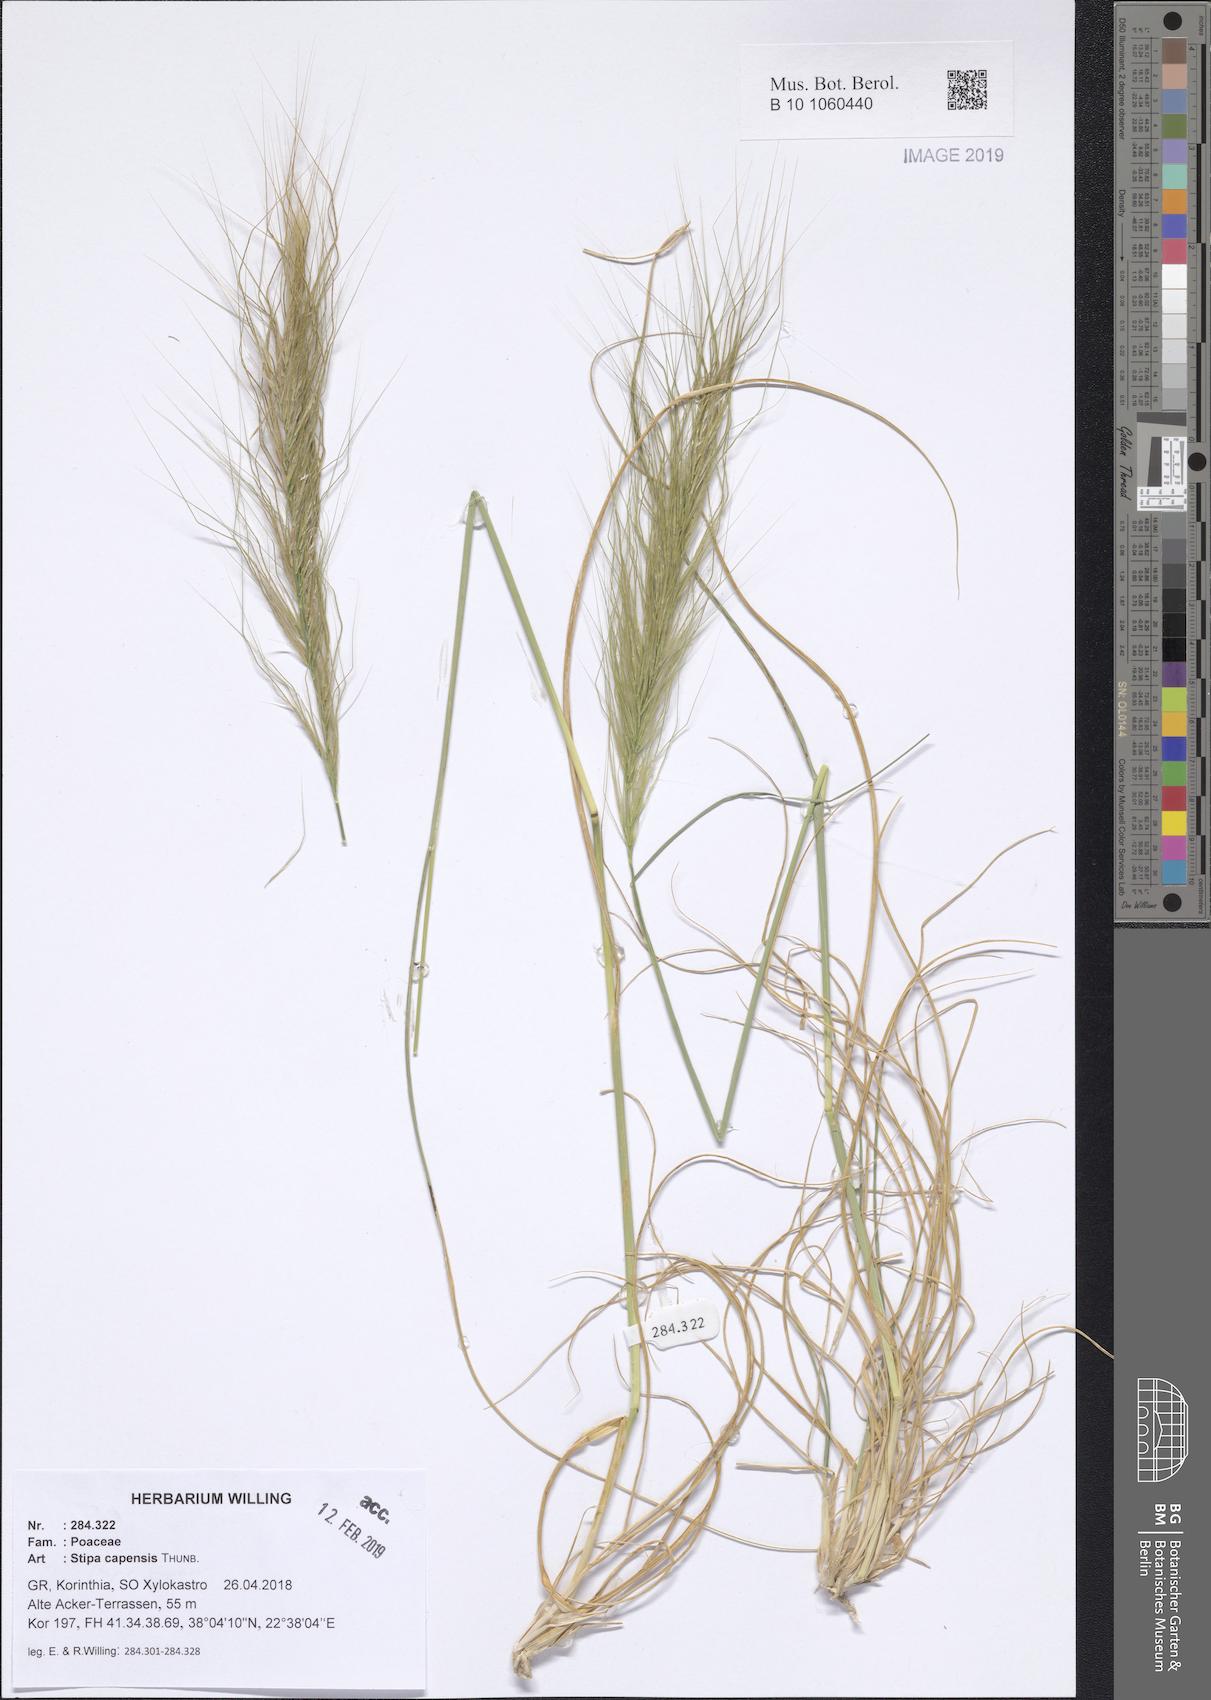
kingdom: Plantae
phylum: Tracheophyta
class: Liliopsida
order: Poales
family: Poaceae
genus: Stipellula
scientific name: Stipellula capensis
